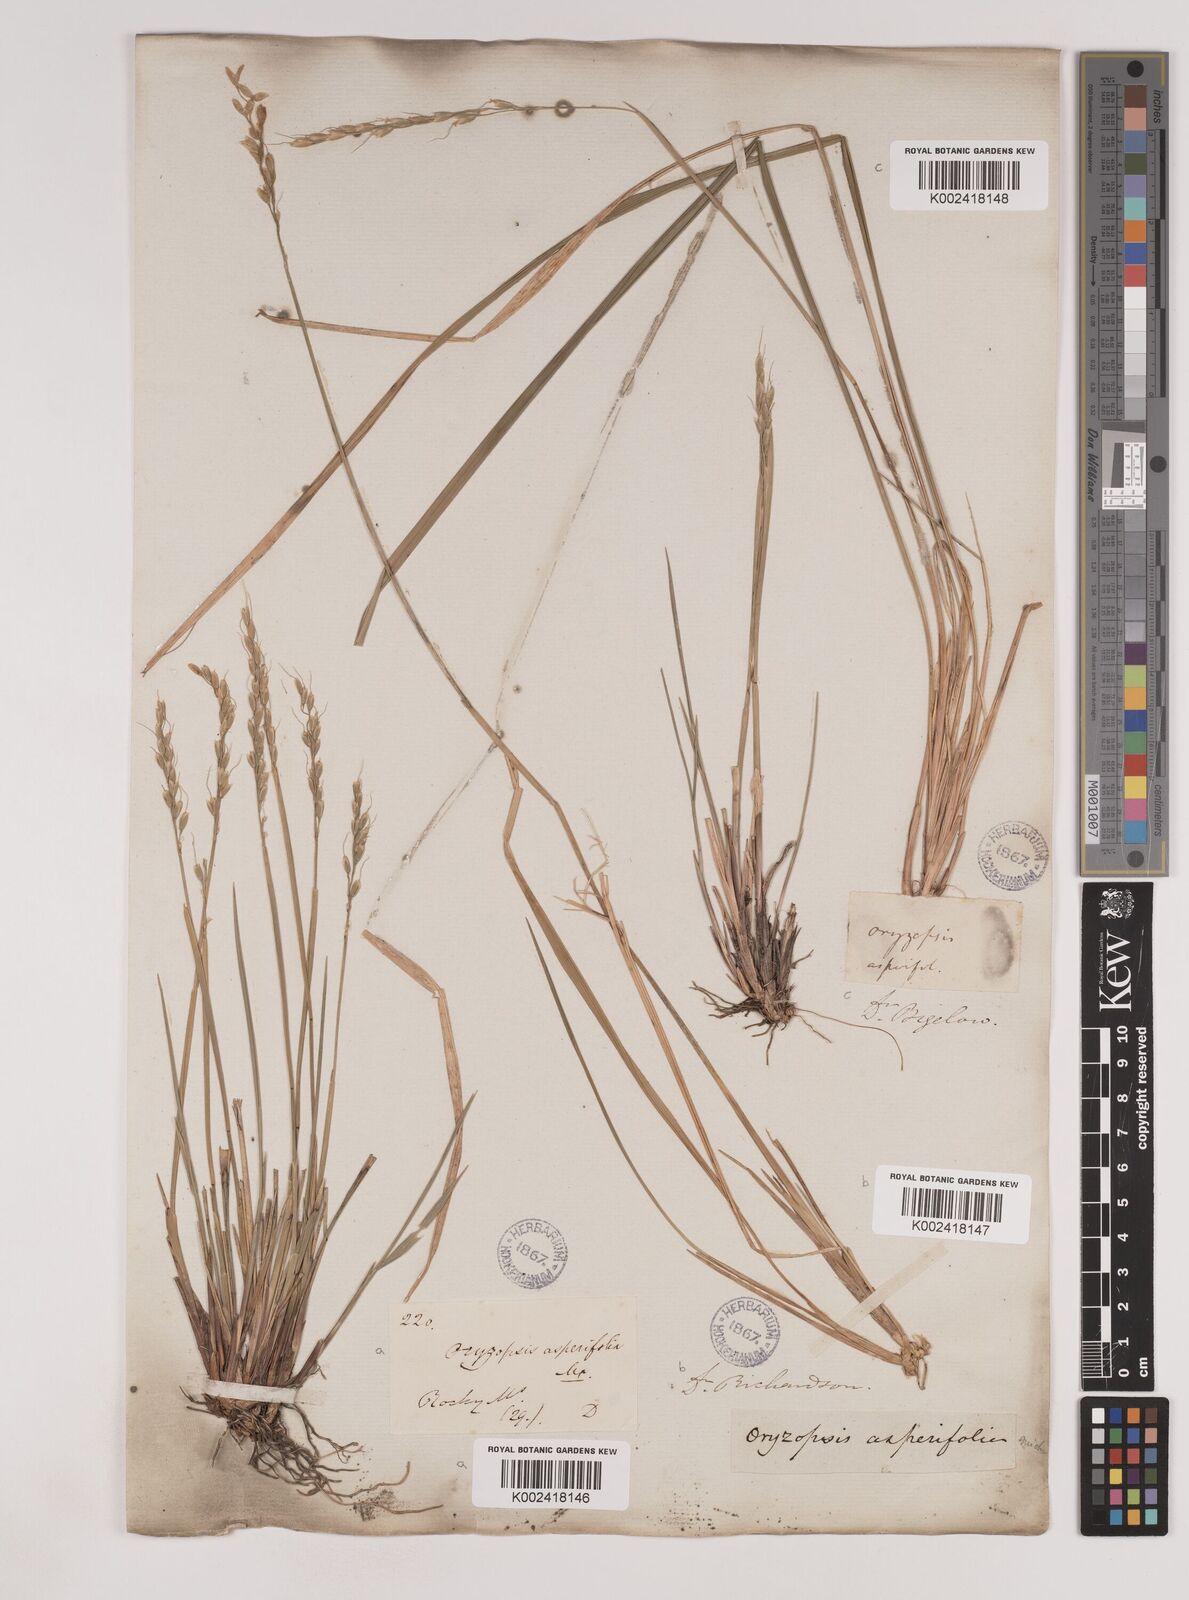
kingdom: Plantae
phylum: Tracheophyta
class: Liliopsida
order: Poales
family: Poaceae
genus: Oryzopsis
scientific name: Oryzopsis asperifolia
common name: Rough-leaved mountain rice
